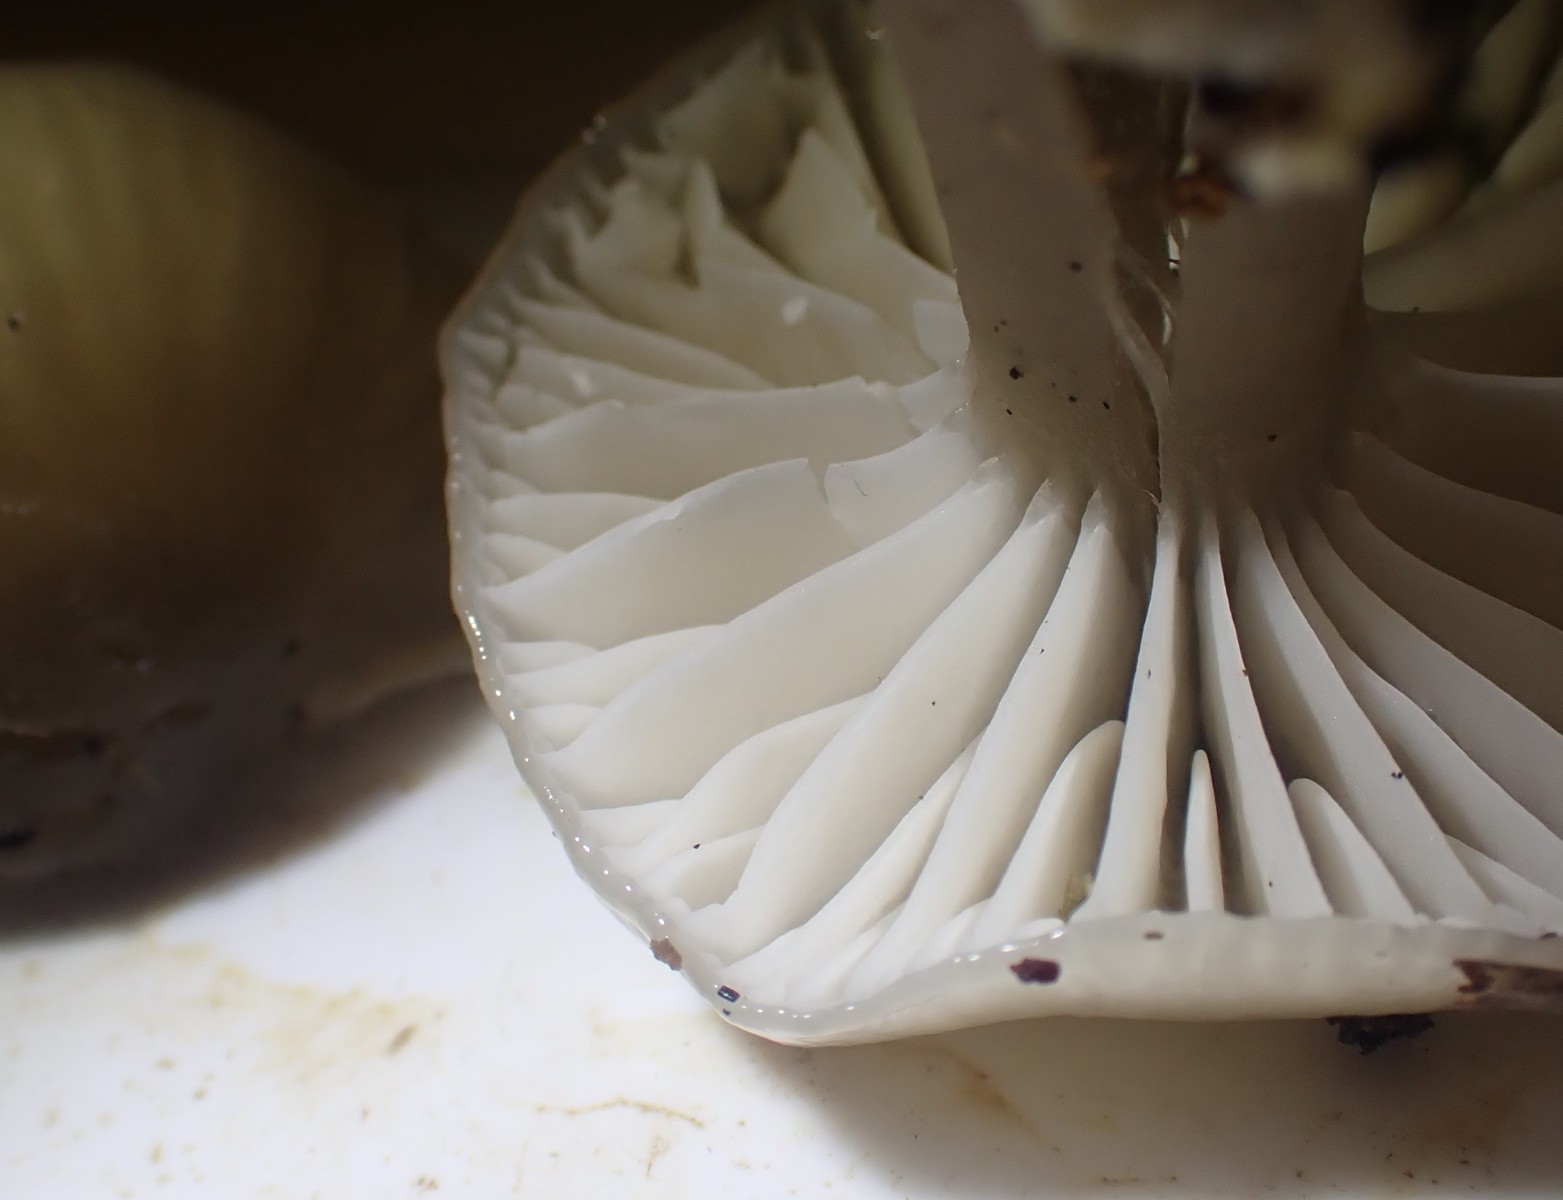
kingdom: Fungi
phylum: Basidiomycota
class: Agaricomycetes
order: Agaricales
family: Hygrophoraceae
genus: Gliophorus
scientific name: Gliophorus irrigatus
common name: slimet vokshat
